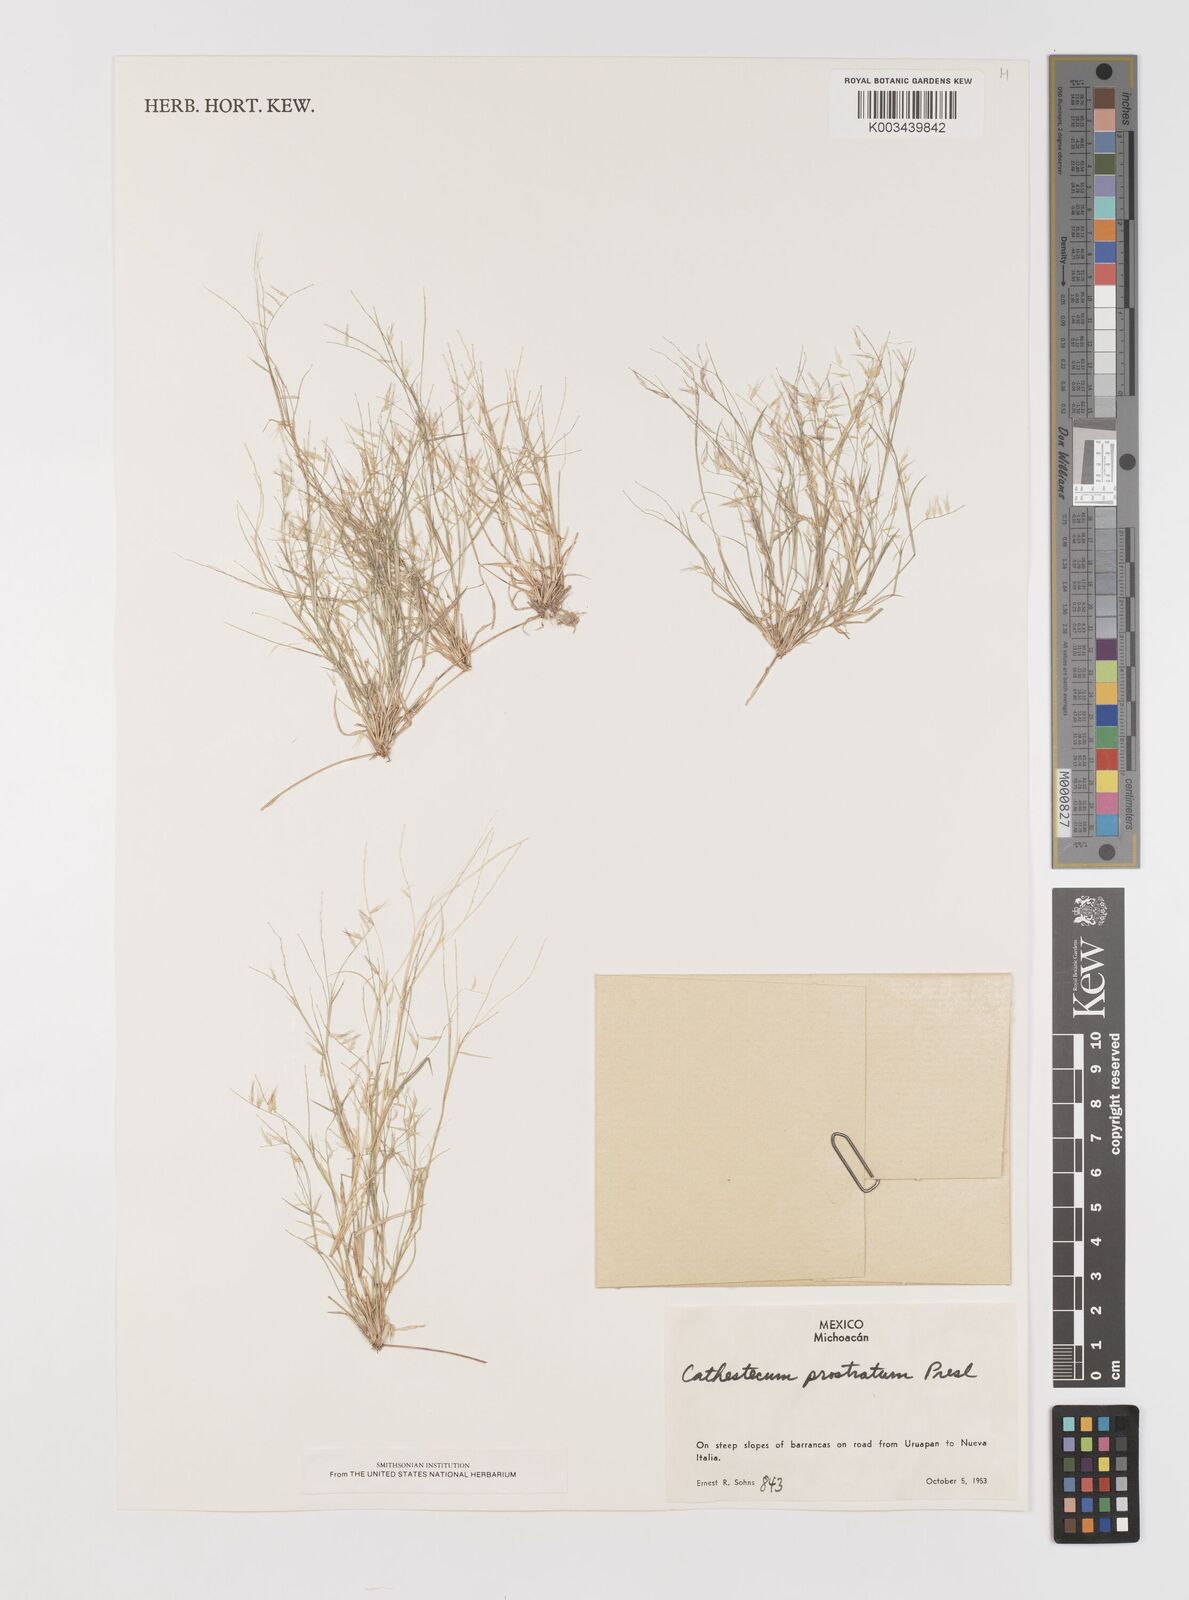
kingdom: Plantae
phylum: Tracheophyta
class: Liliopsida
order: Poales
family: Poaceae
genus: Bouteloua
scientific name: Bouteloua griffithsii
